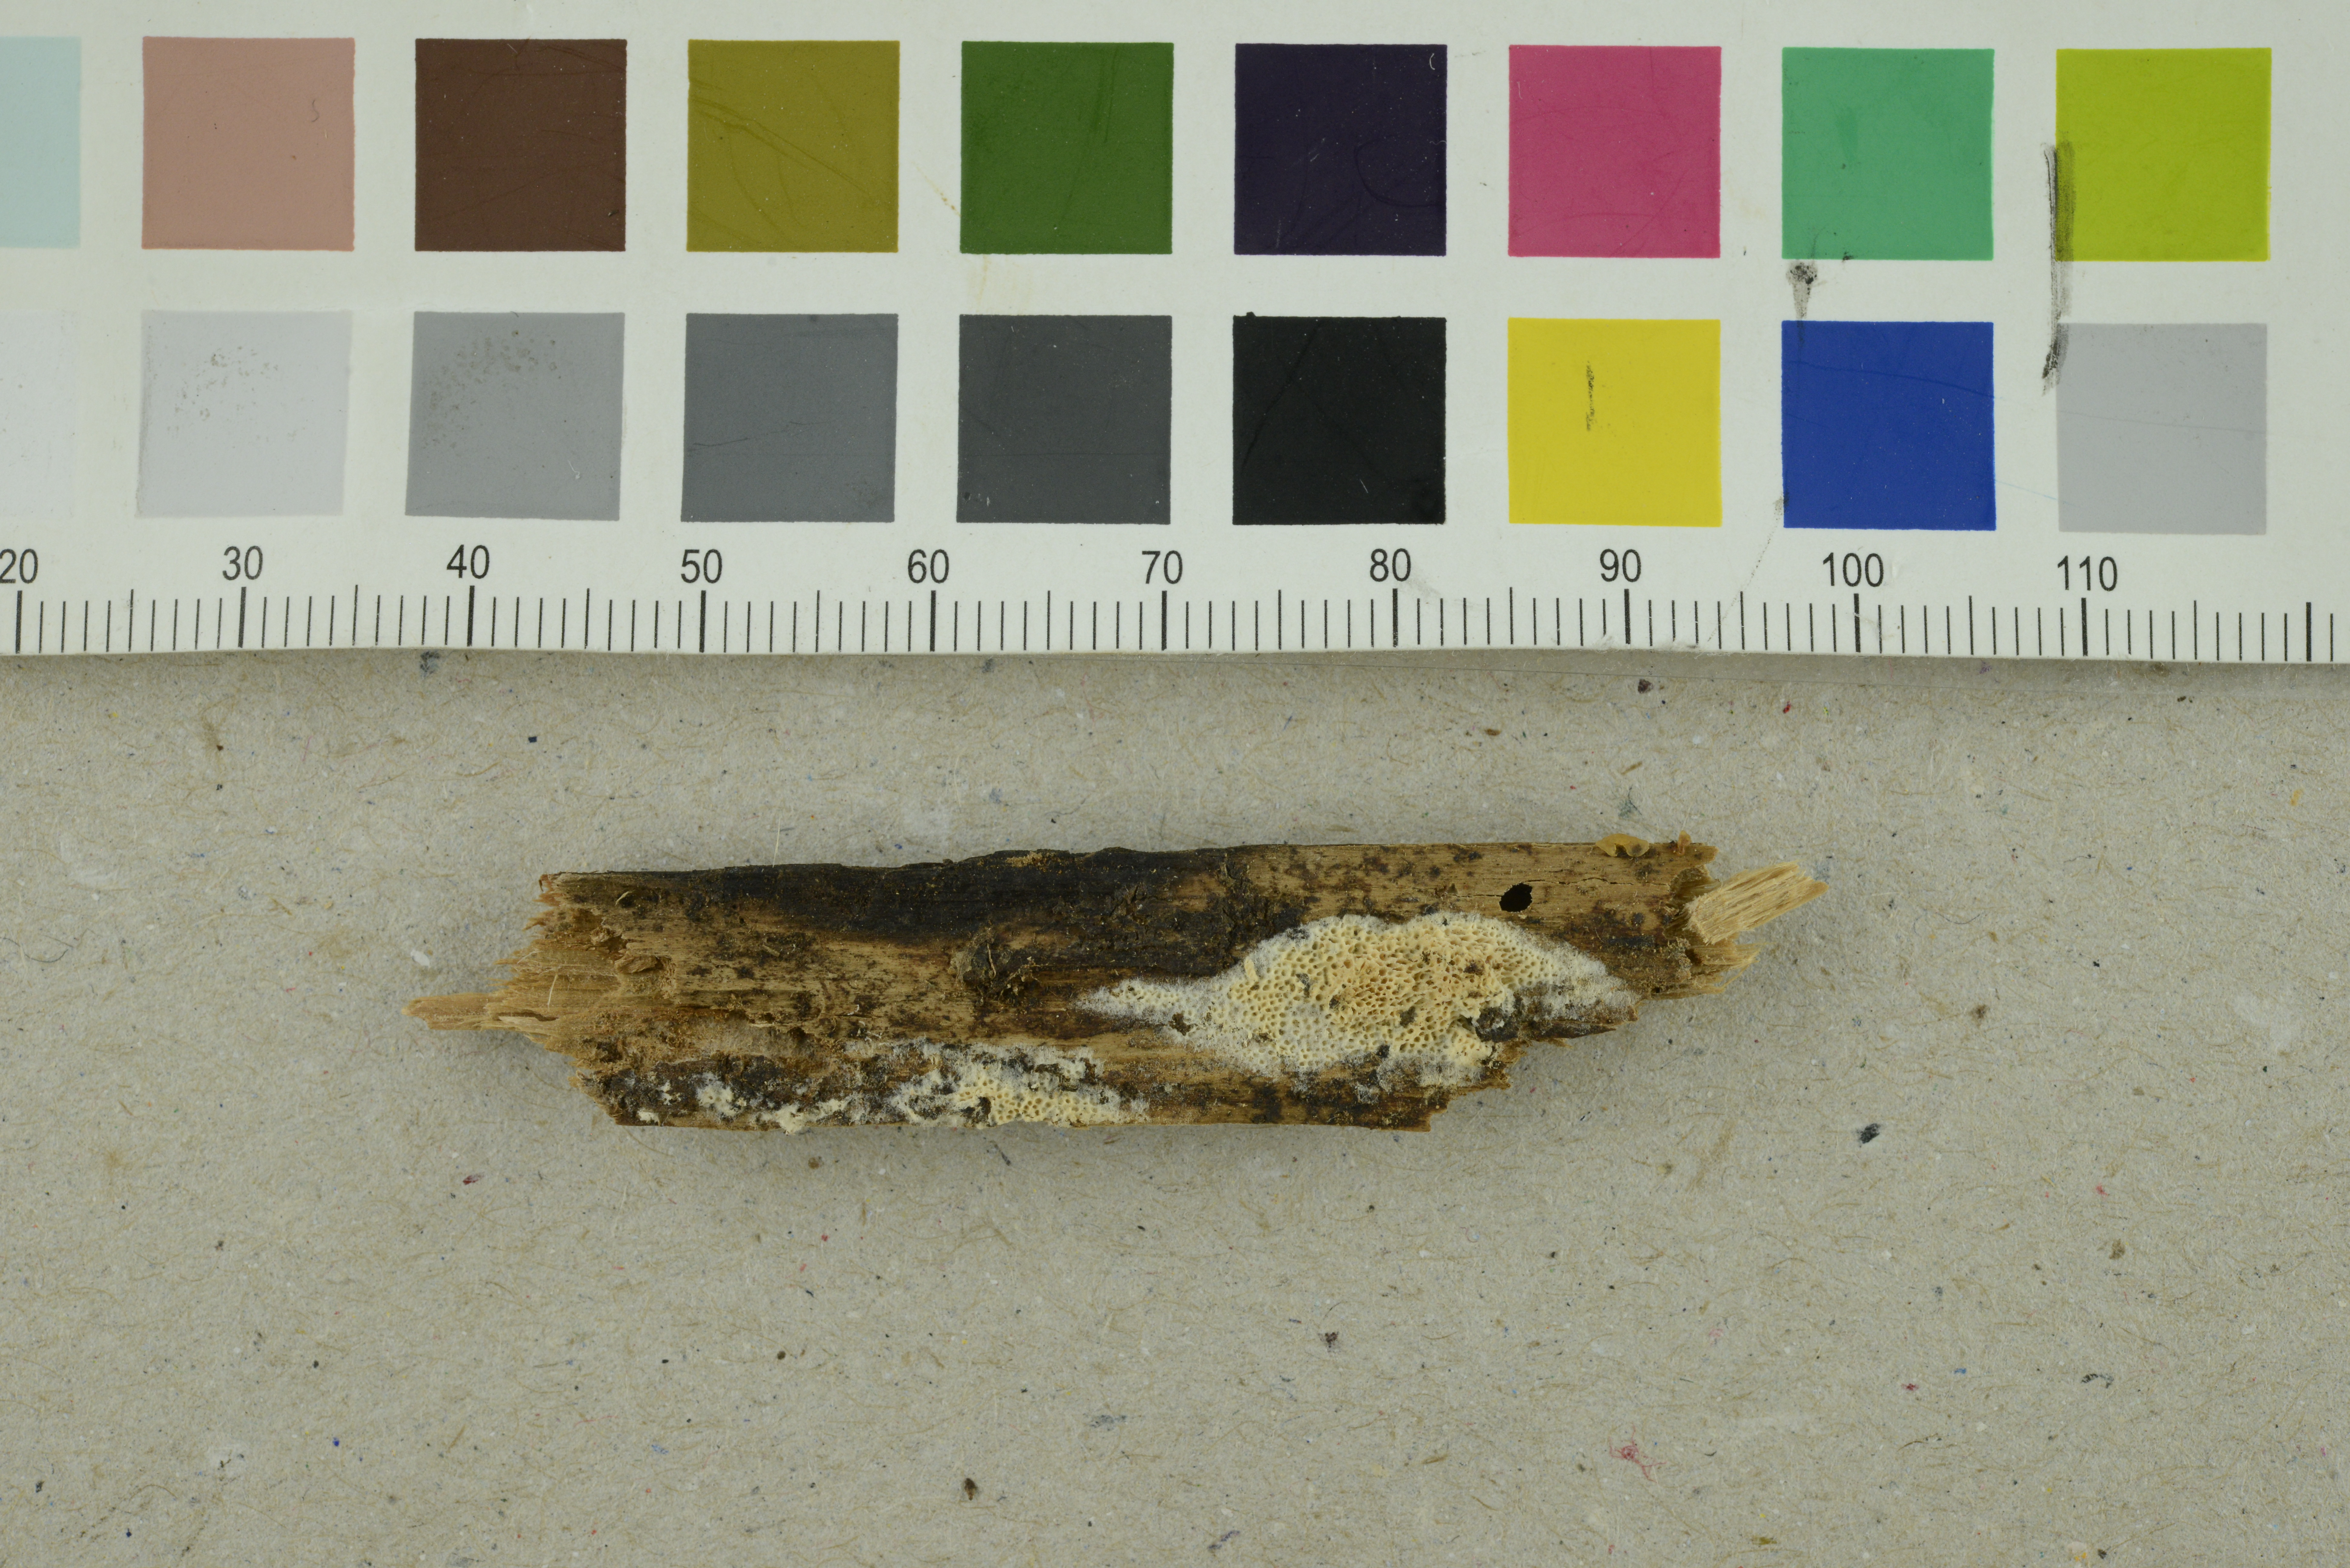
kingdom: Fungi
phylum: Basidiomycota
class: Agaricomycetes
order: Polyporales
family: Gelatoporiaceae
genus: Cinereomyces
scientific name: Cinereomyces lindbladii
